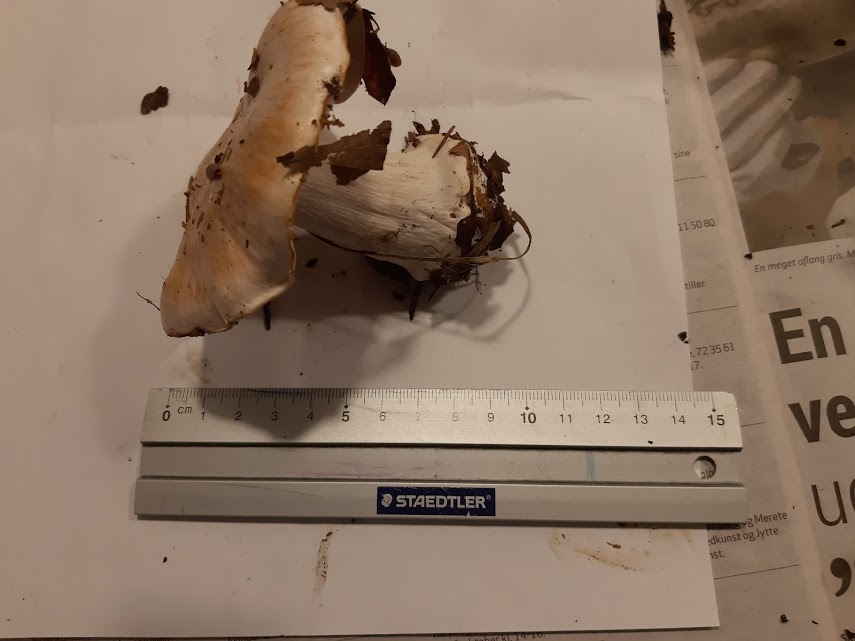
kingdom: Fungi
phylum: Basidiomycota
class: Agaricomycetes
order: Agaricales
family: Cortinariaceae
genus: Cortinarius
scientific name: Cortinarius
